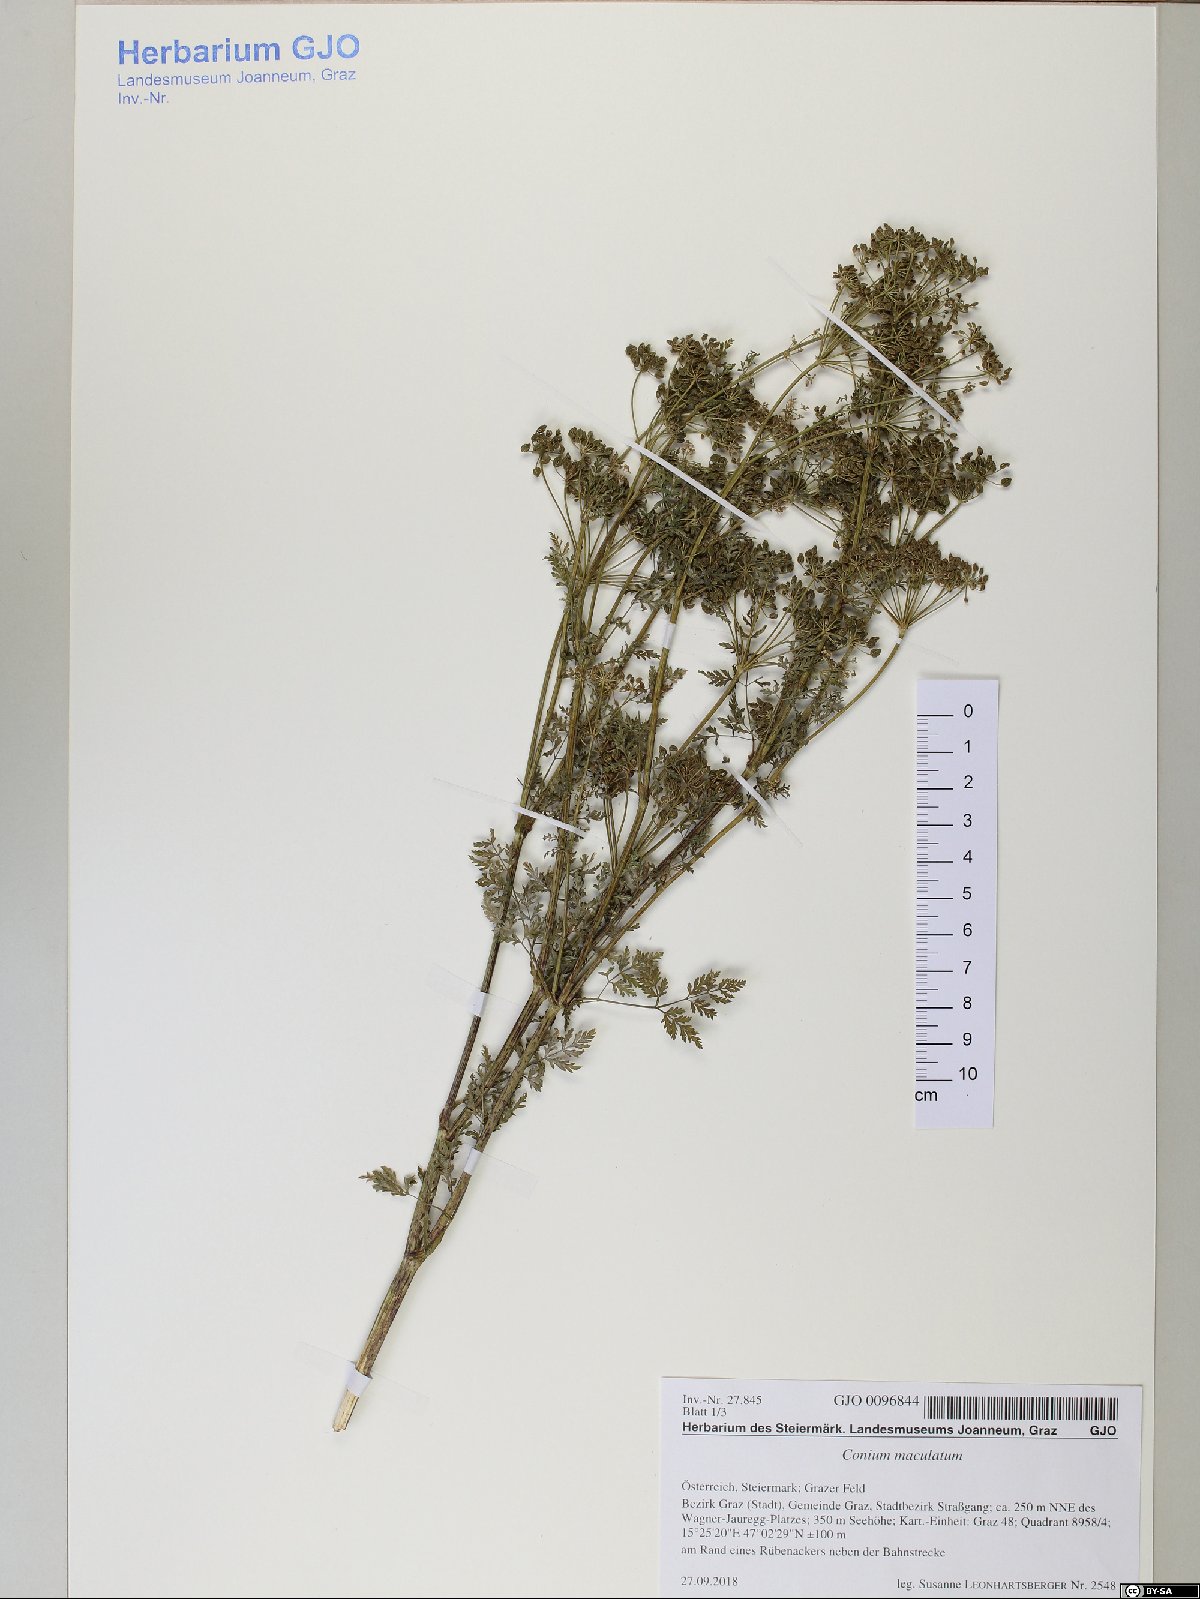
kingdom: Plantae
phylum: Tracheophyta
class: Magnoliopsida
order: Apiales
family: Apiaceae
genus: Conium
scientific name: Conium maculatum
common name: Hemlock
